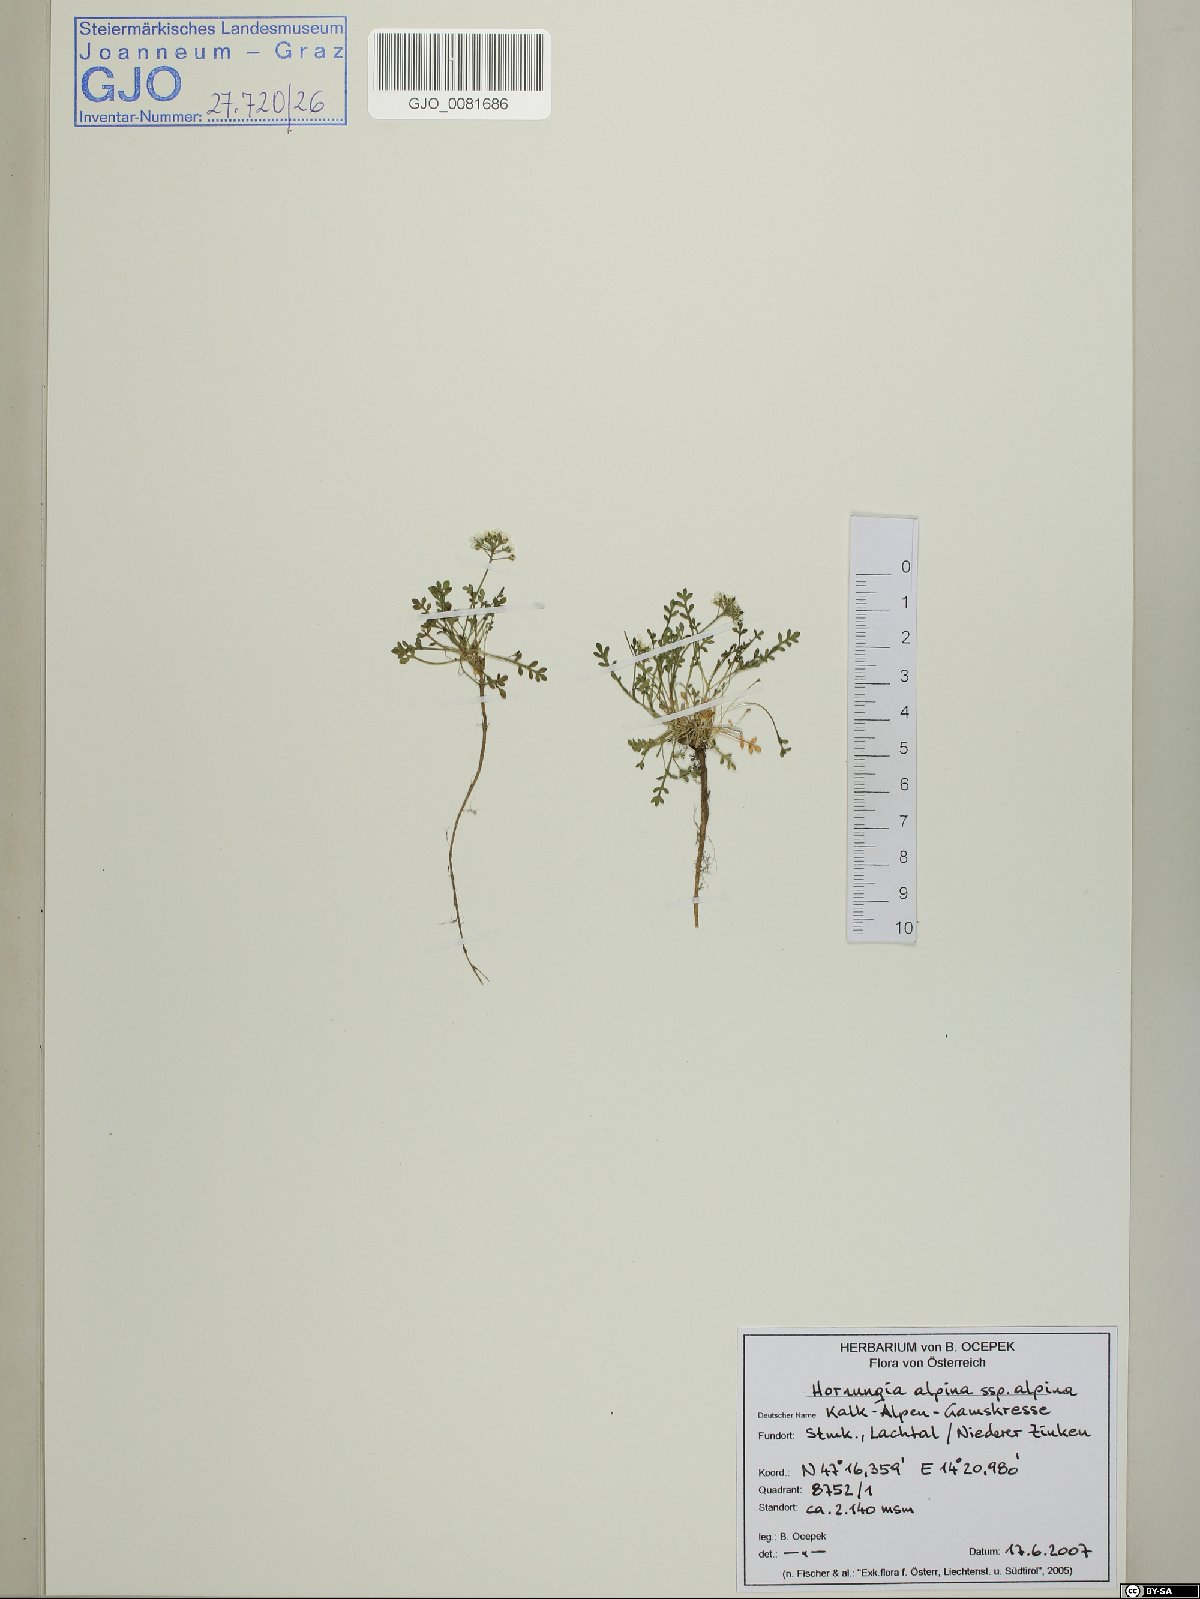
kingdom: Plantae
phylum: Tracheophyta
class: Magnoliopsida
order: Brassicales
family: Brassicaceae
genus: Hornungia
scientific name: Hornungia alpina
